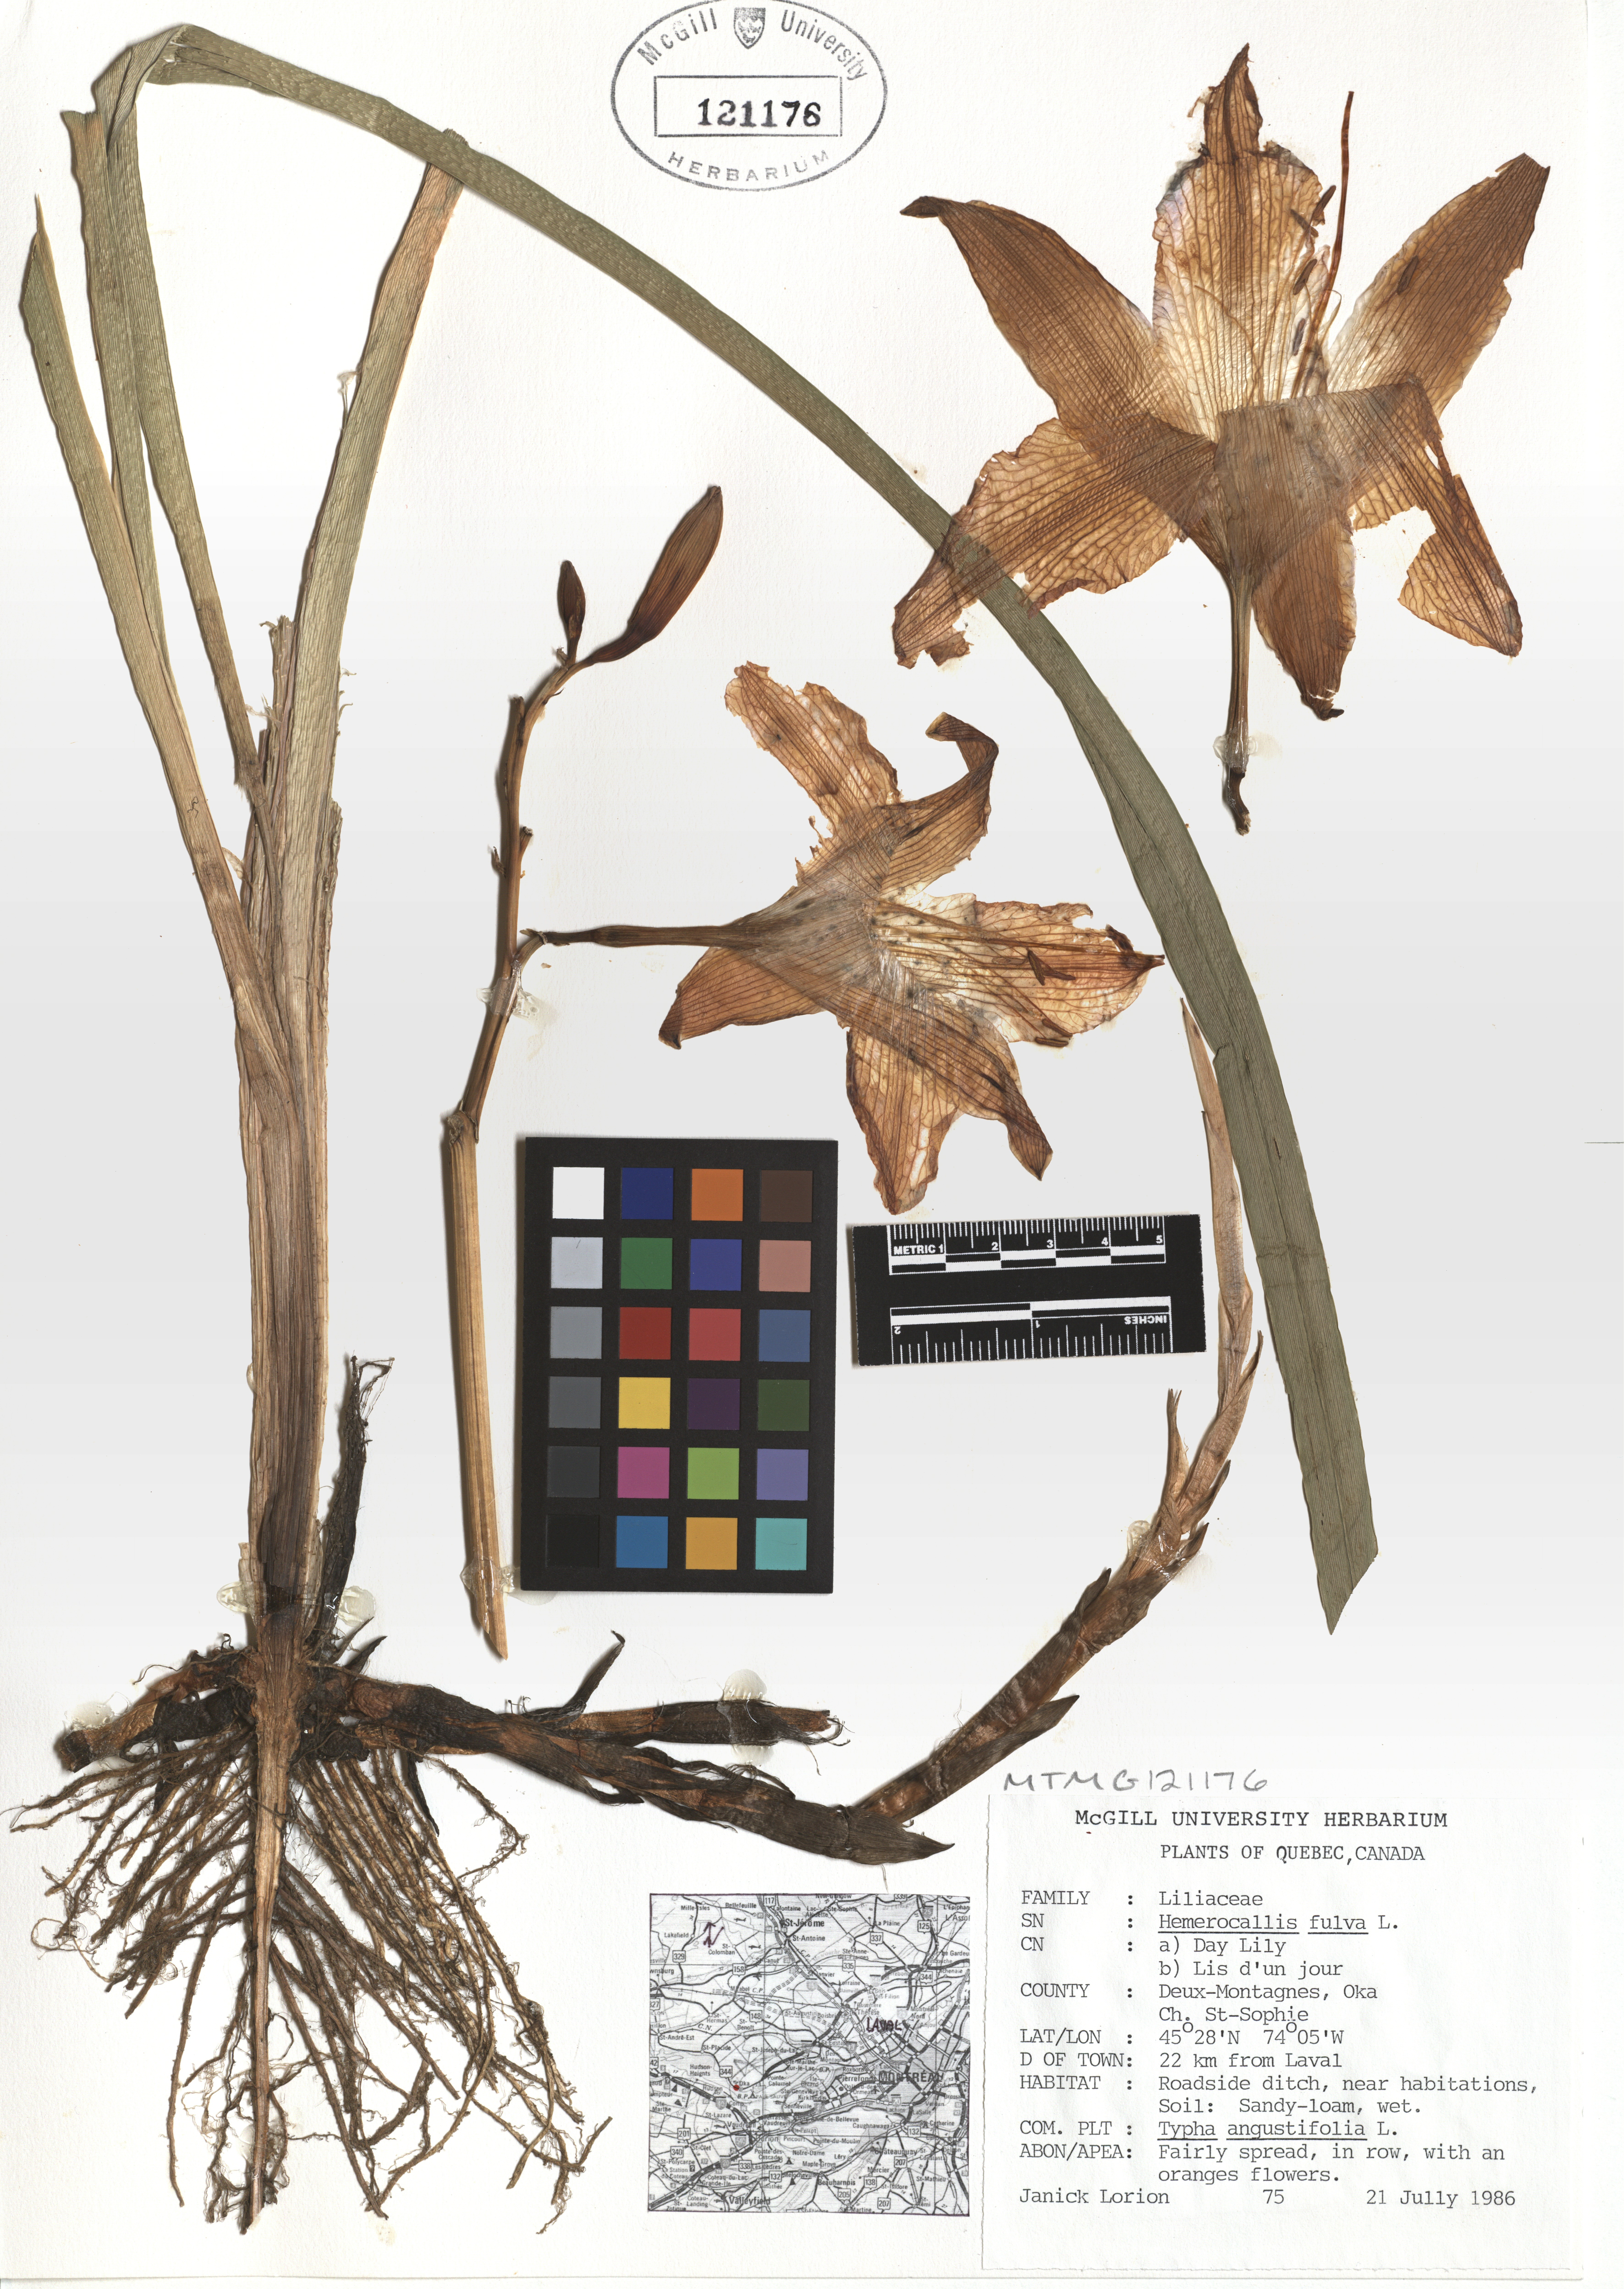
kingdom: Plantae
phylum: Tracheophyta
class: Liliopsida
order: Asparagales
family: Asphodelaceae
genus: Hemerocallis
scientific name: Hemerocallis fulva
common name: Orange day-lily
